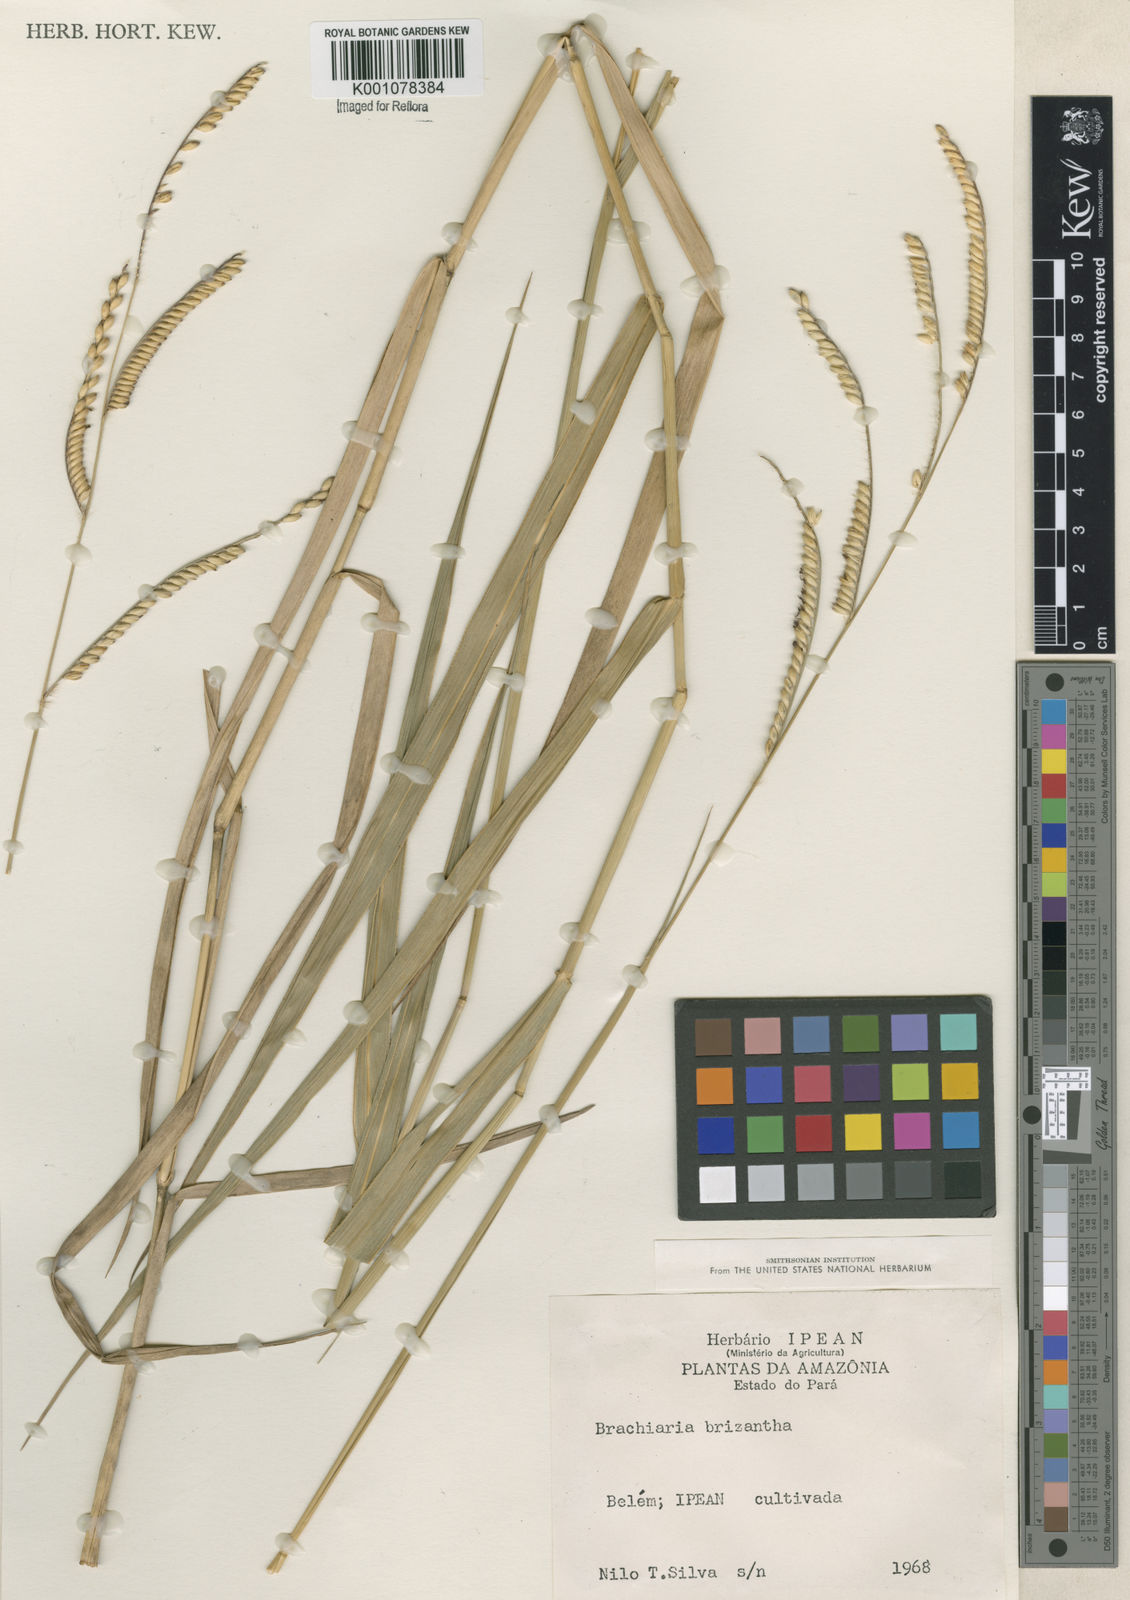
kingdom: Plantae
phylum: Tracheophyta
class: Liliopsida
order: Poales
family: Poaceae
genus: Urochloa
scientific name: Urochloa brizantha
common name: Palisade signalgrass
